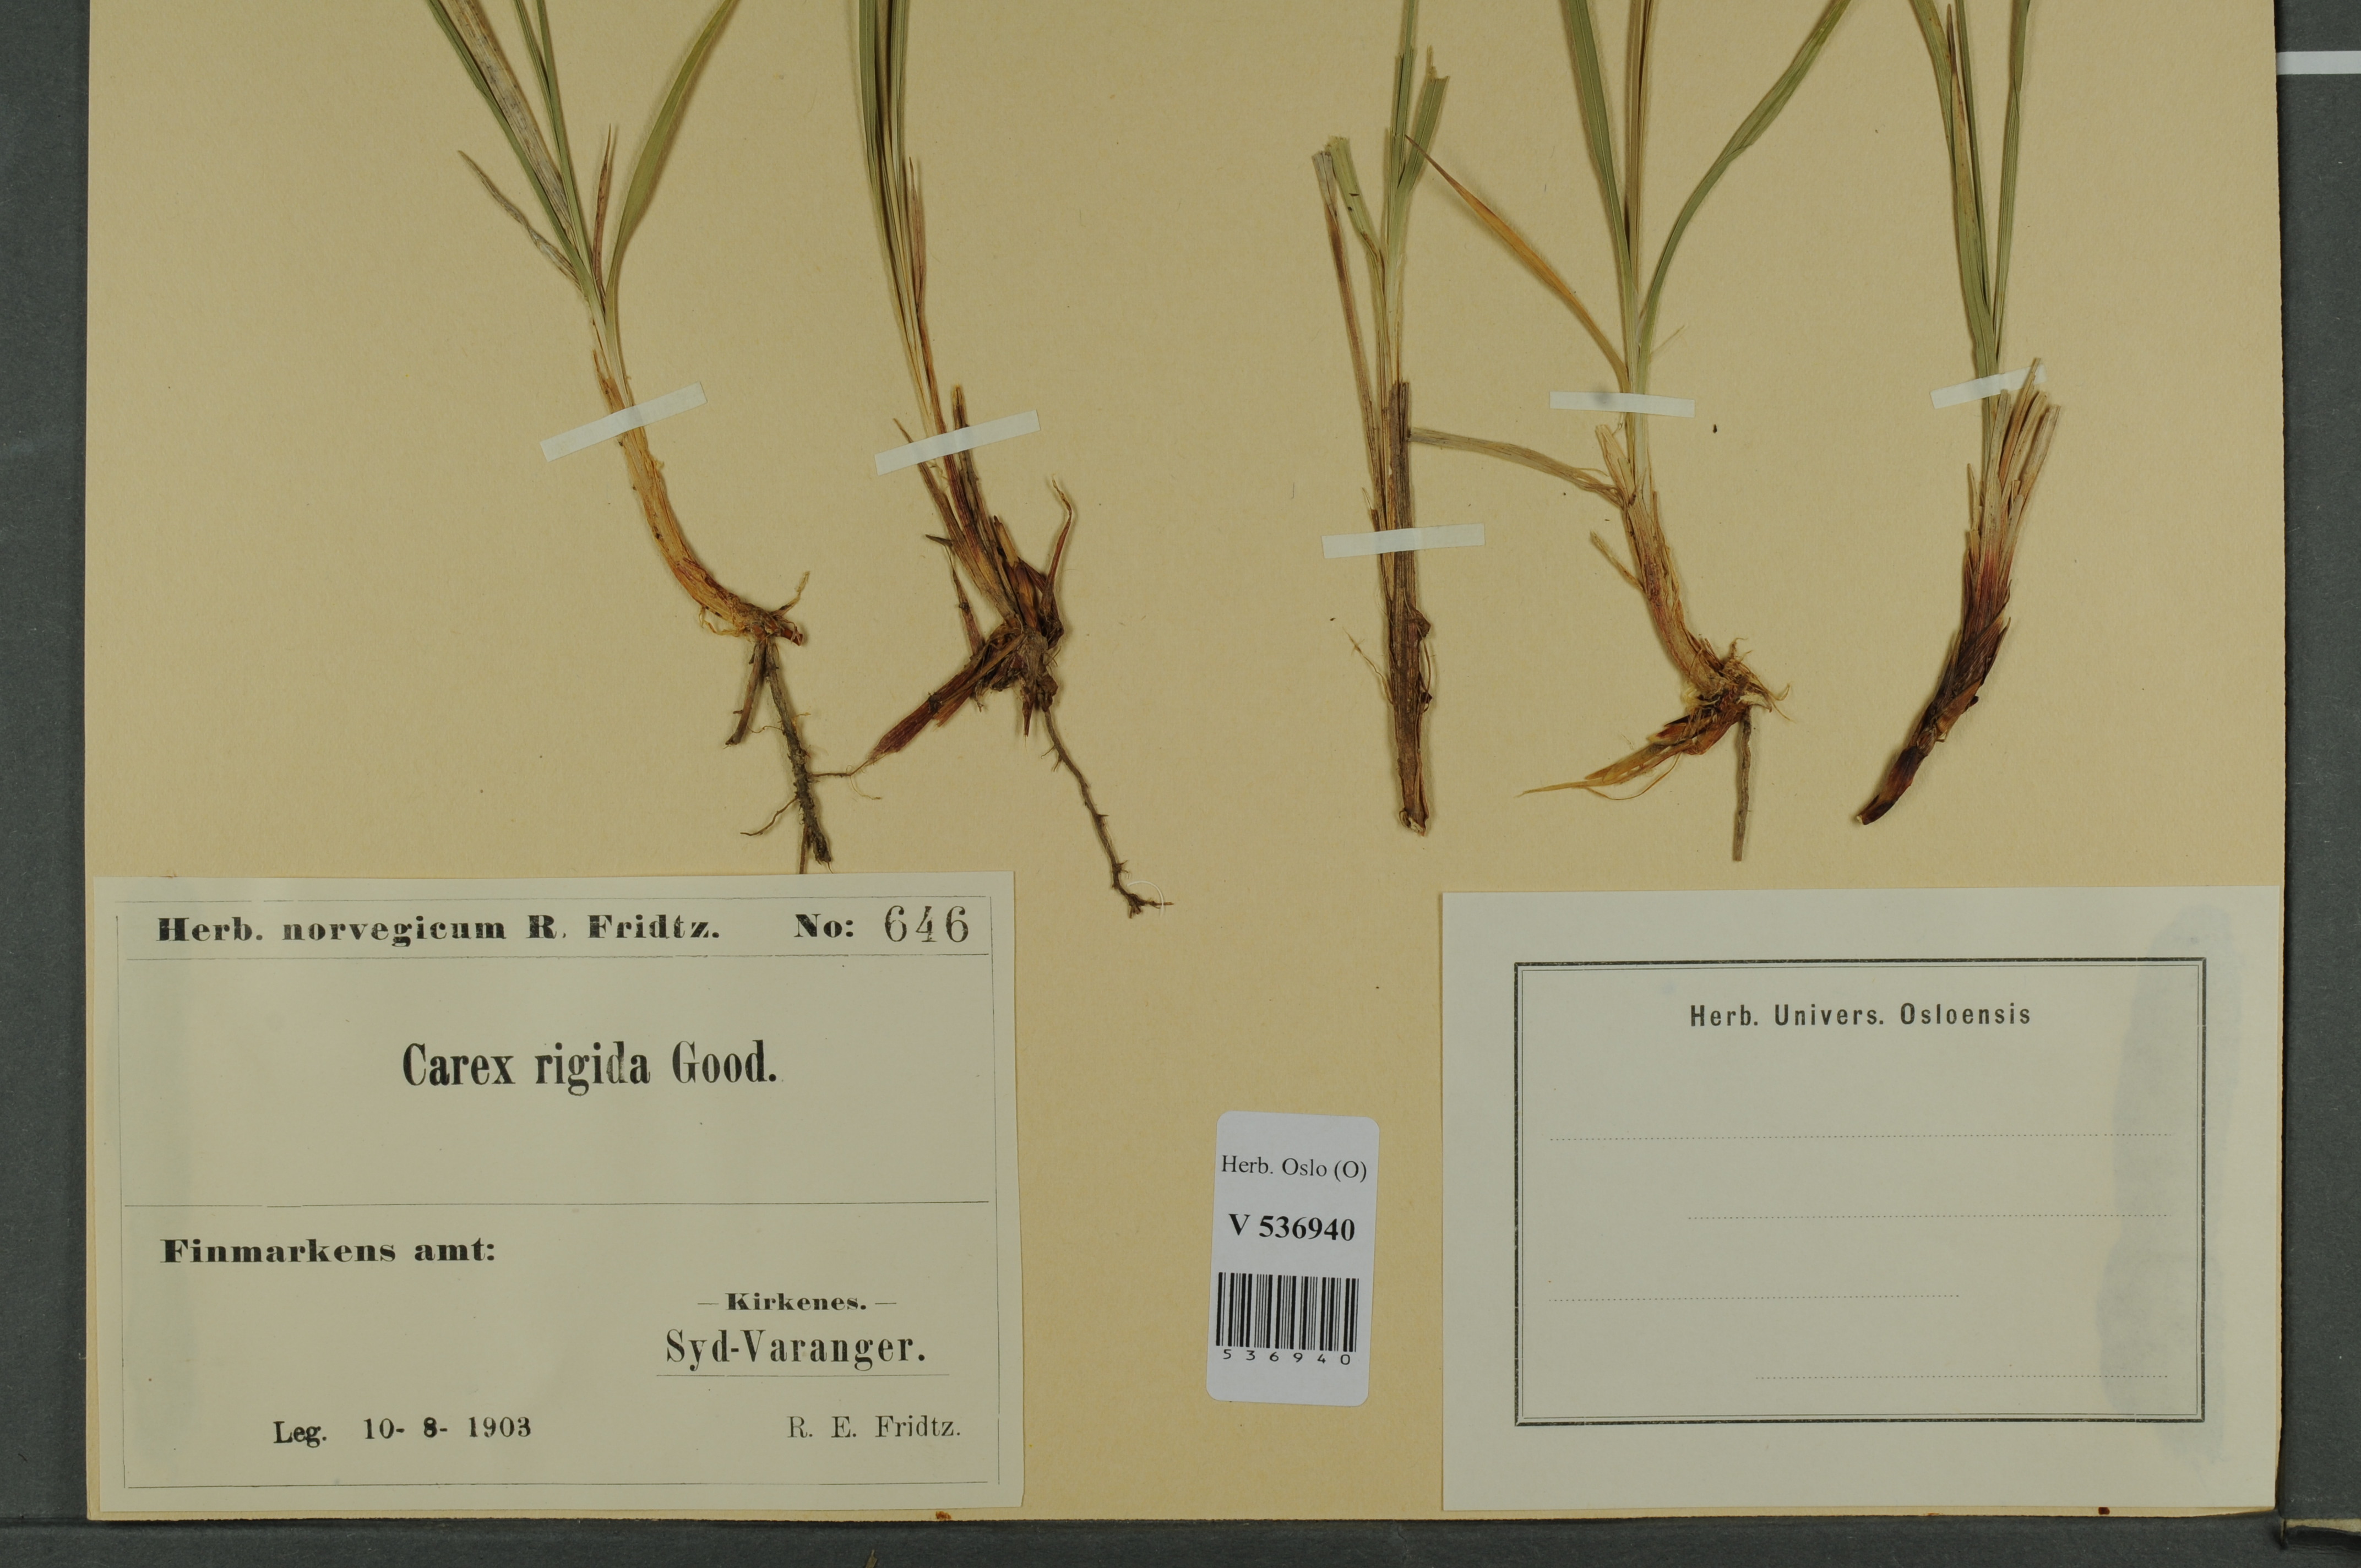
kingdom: Plantae
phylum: Tracheophyta
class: Liliopsida
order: Poales
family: Cyperaceae
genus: Carex
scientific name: Carex dacica
